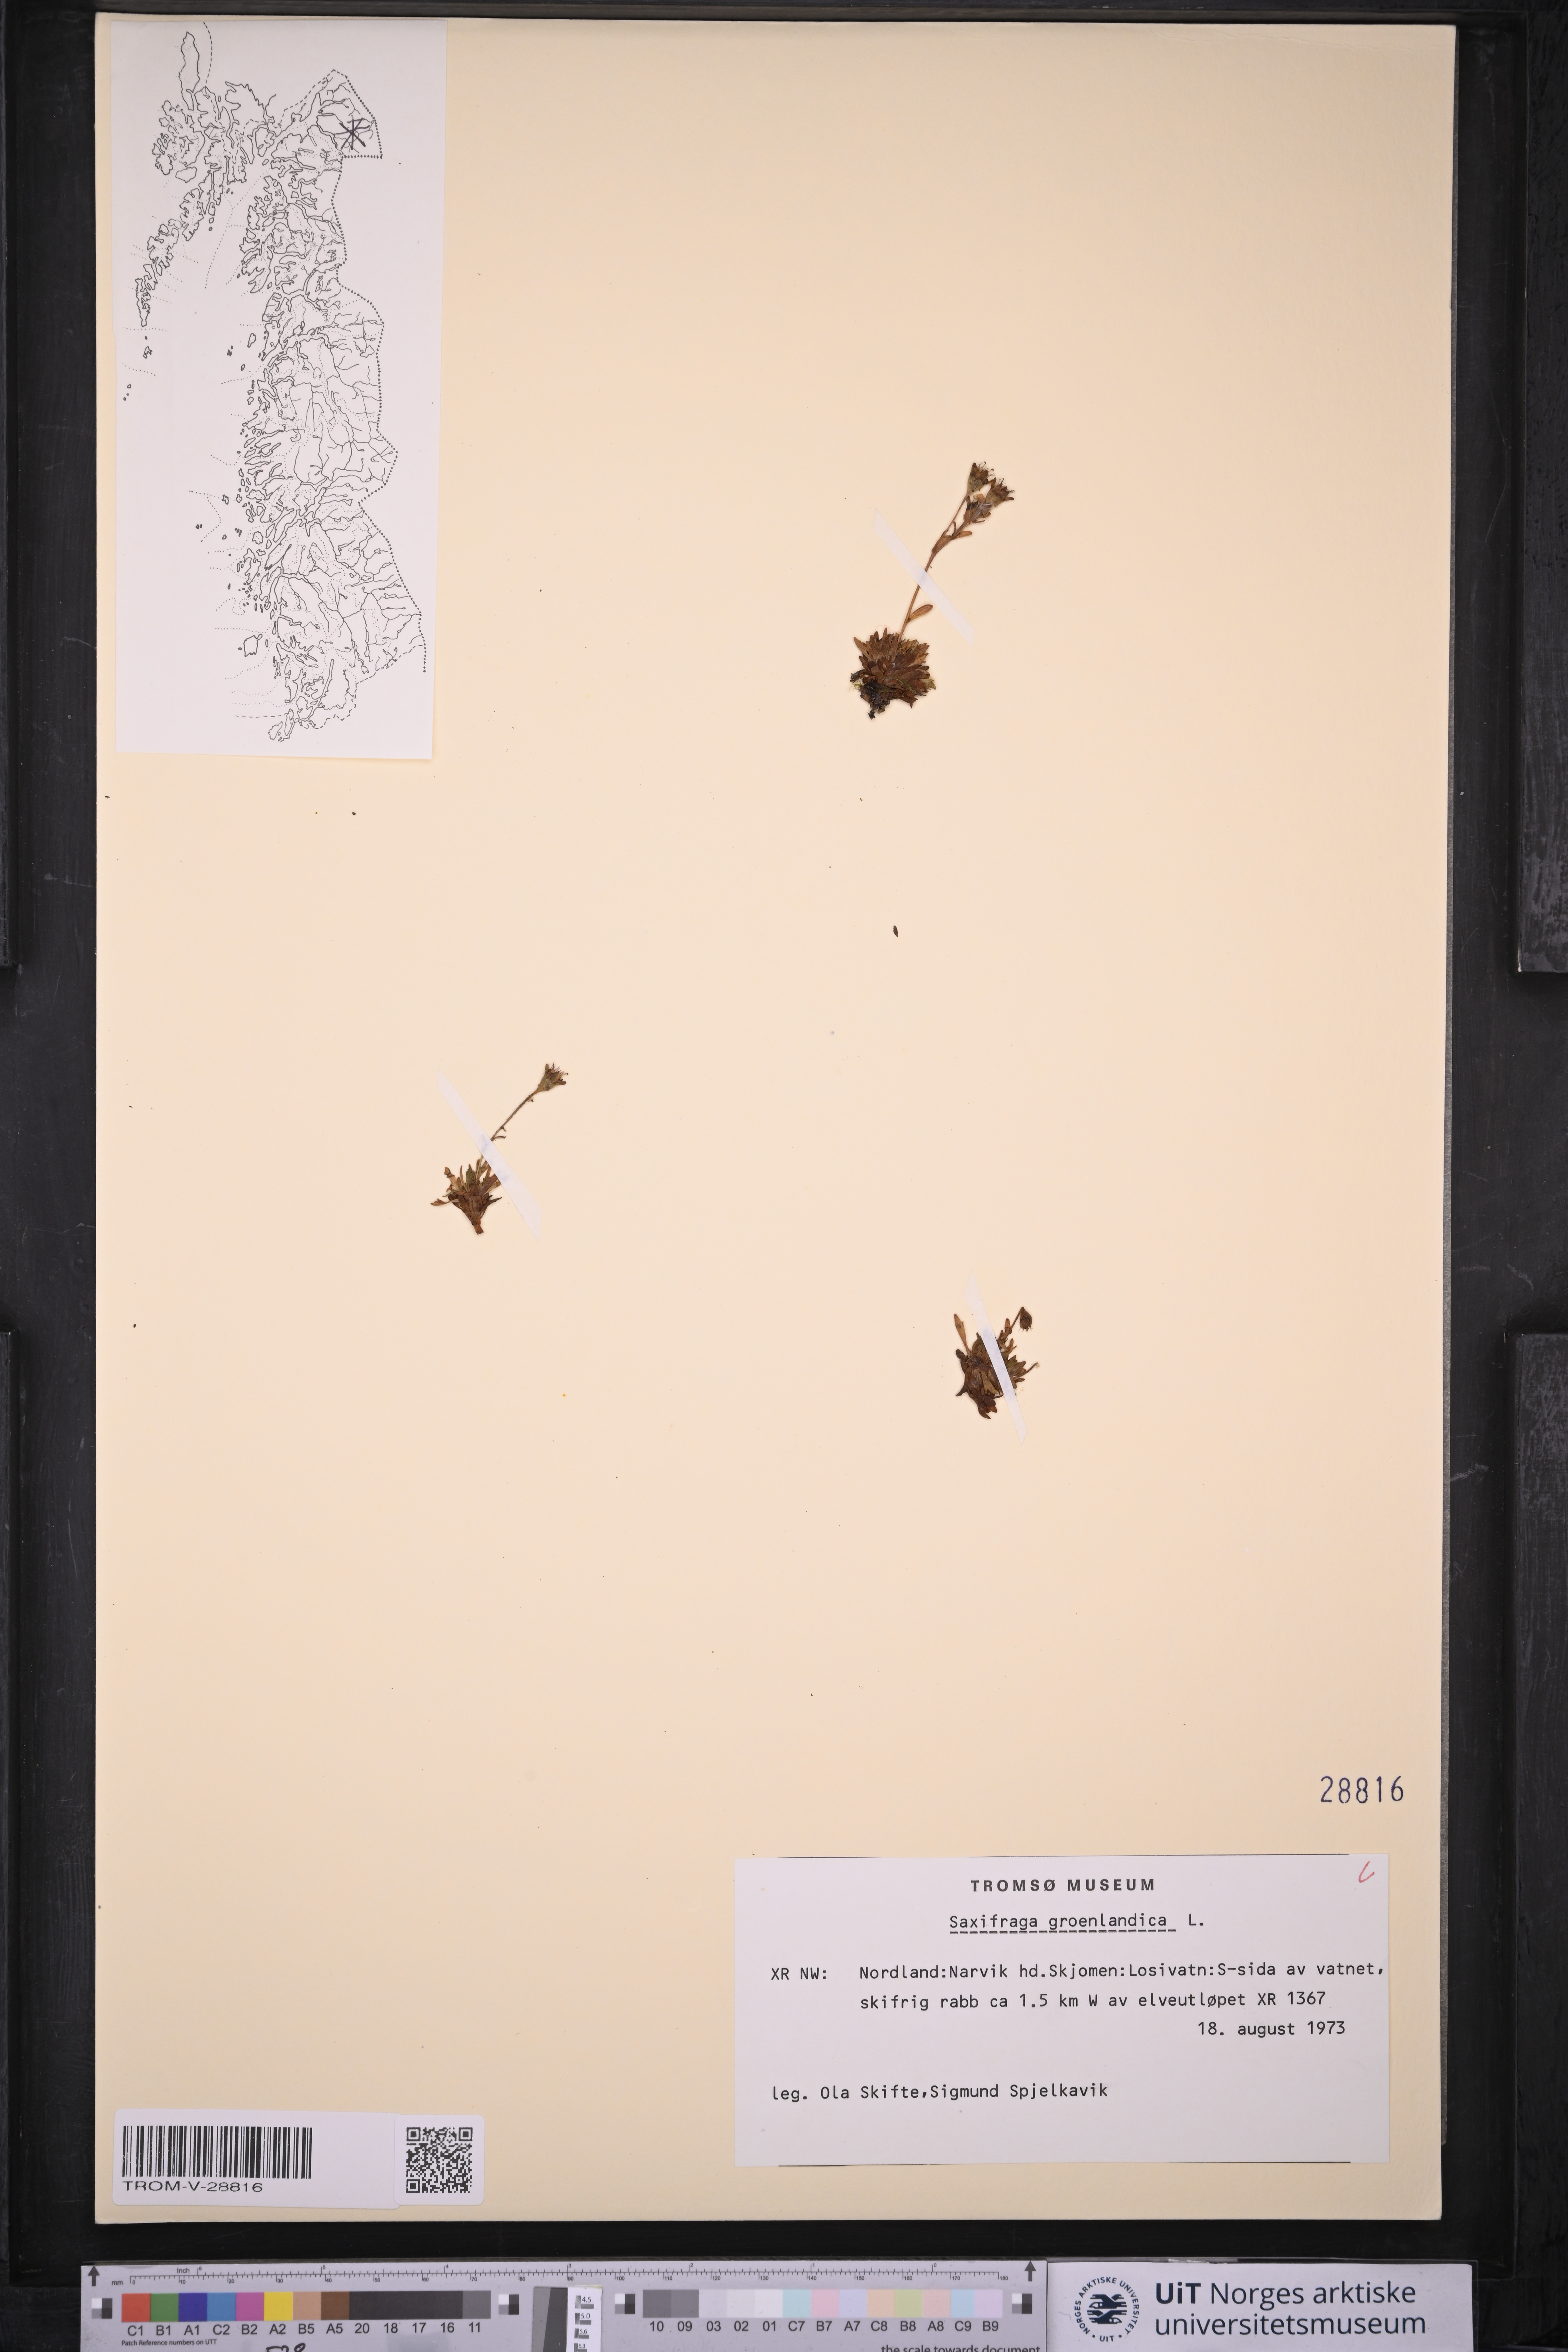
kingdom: Plantae
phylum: Tracheophyta
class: Magnoliopsida
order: Saxifragales
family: Saxifragaceae
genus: Saxifraga
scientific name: Saxifraga cespitosa
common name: Tufted saxifrage
